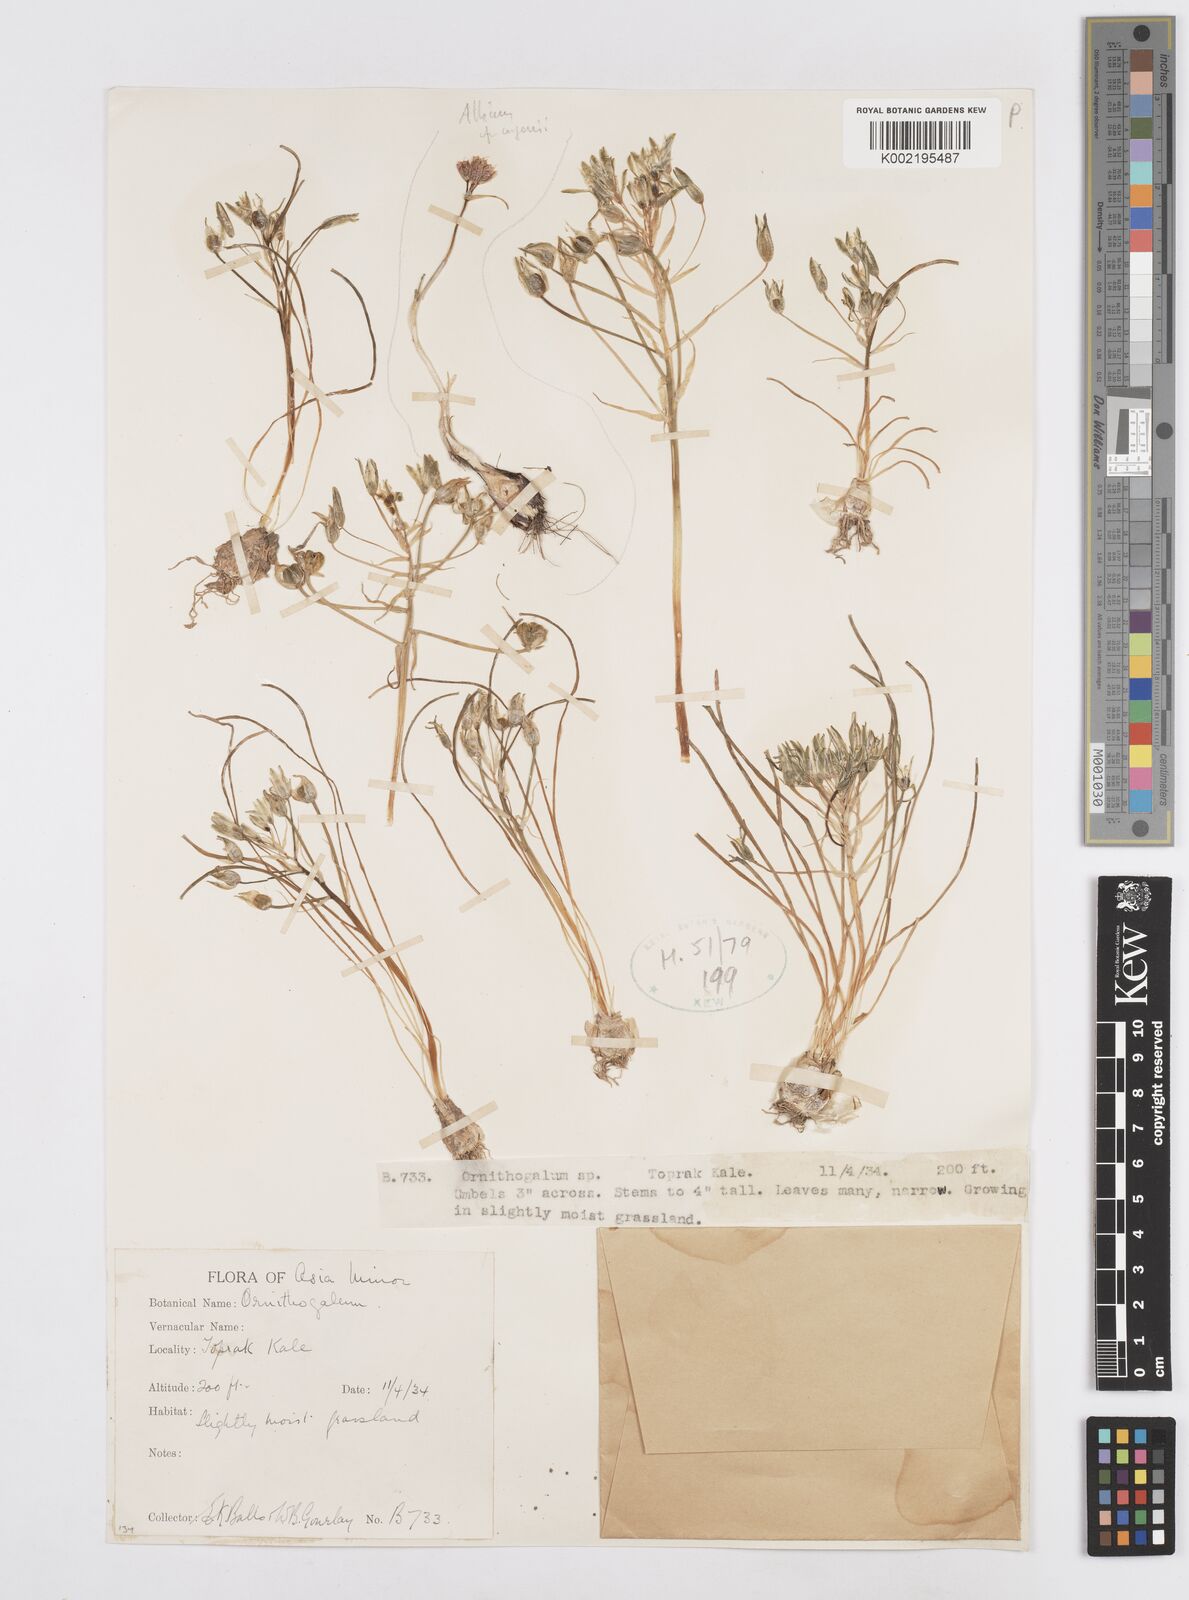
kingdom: Plantae
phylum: Tracheophyta
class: Liliopsida
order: Asparagales
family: Asparagaceae
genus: Ornithogalum
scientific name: Ornithogalum
